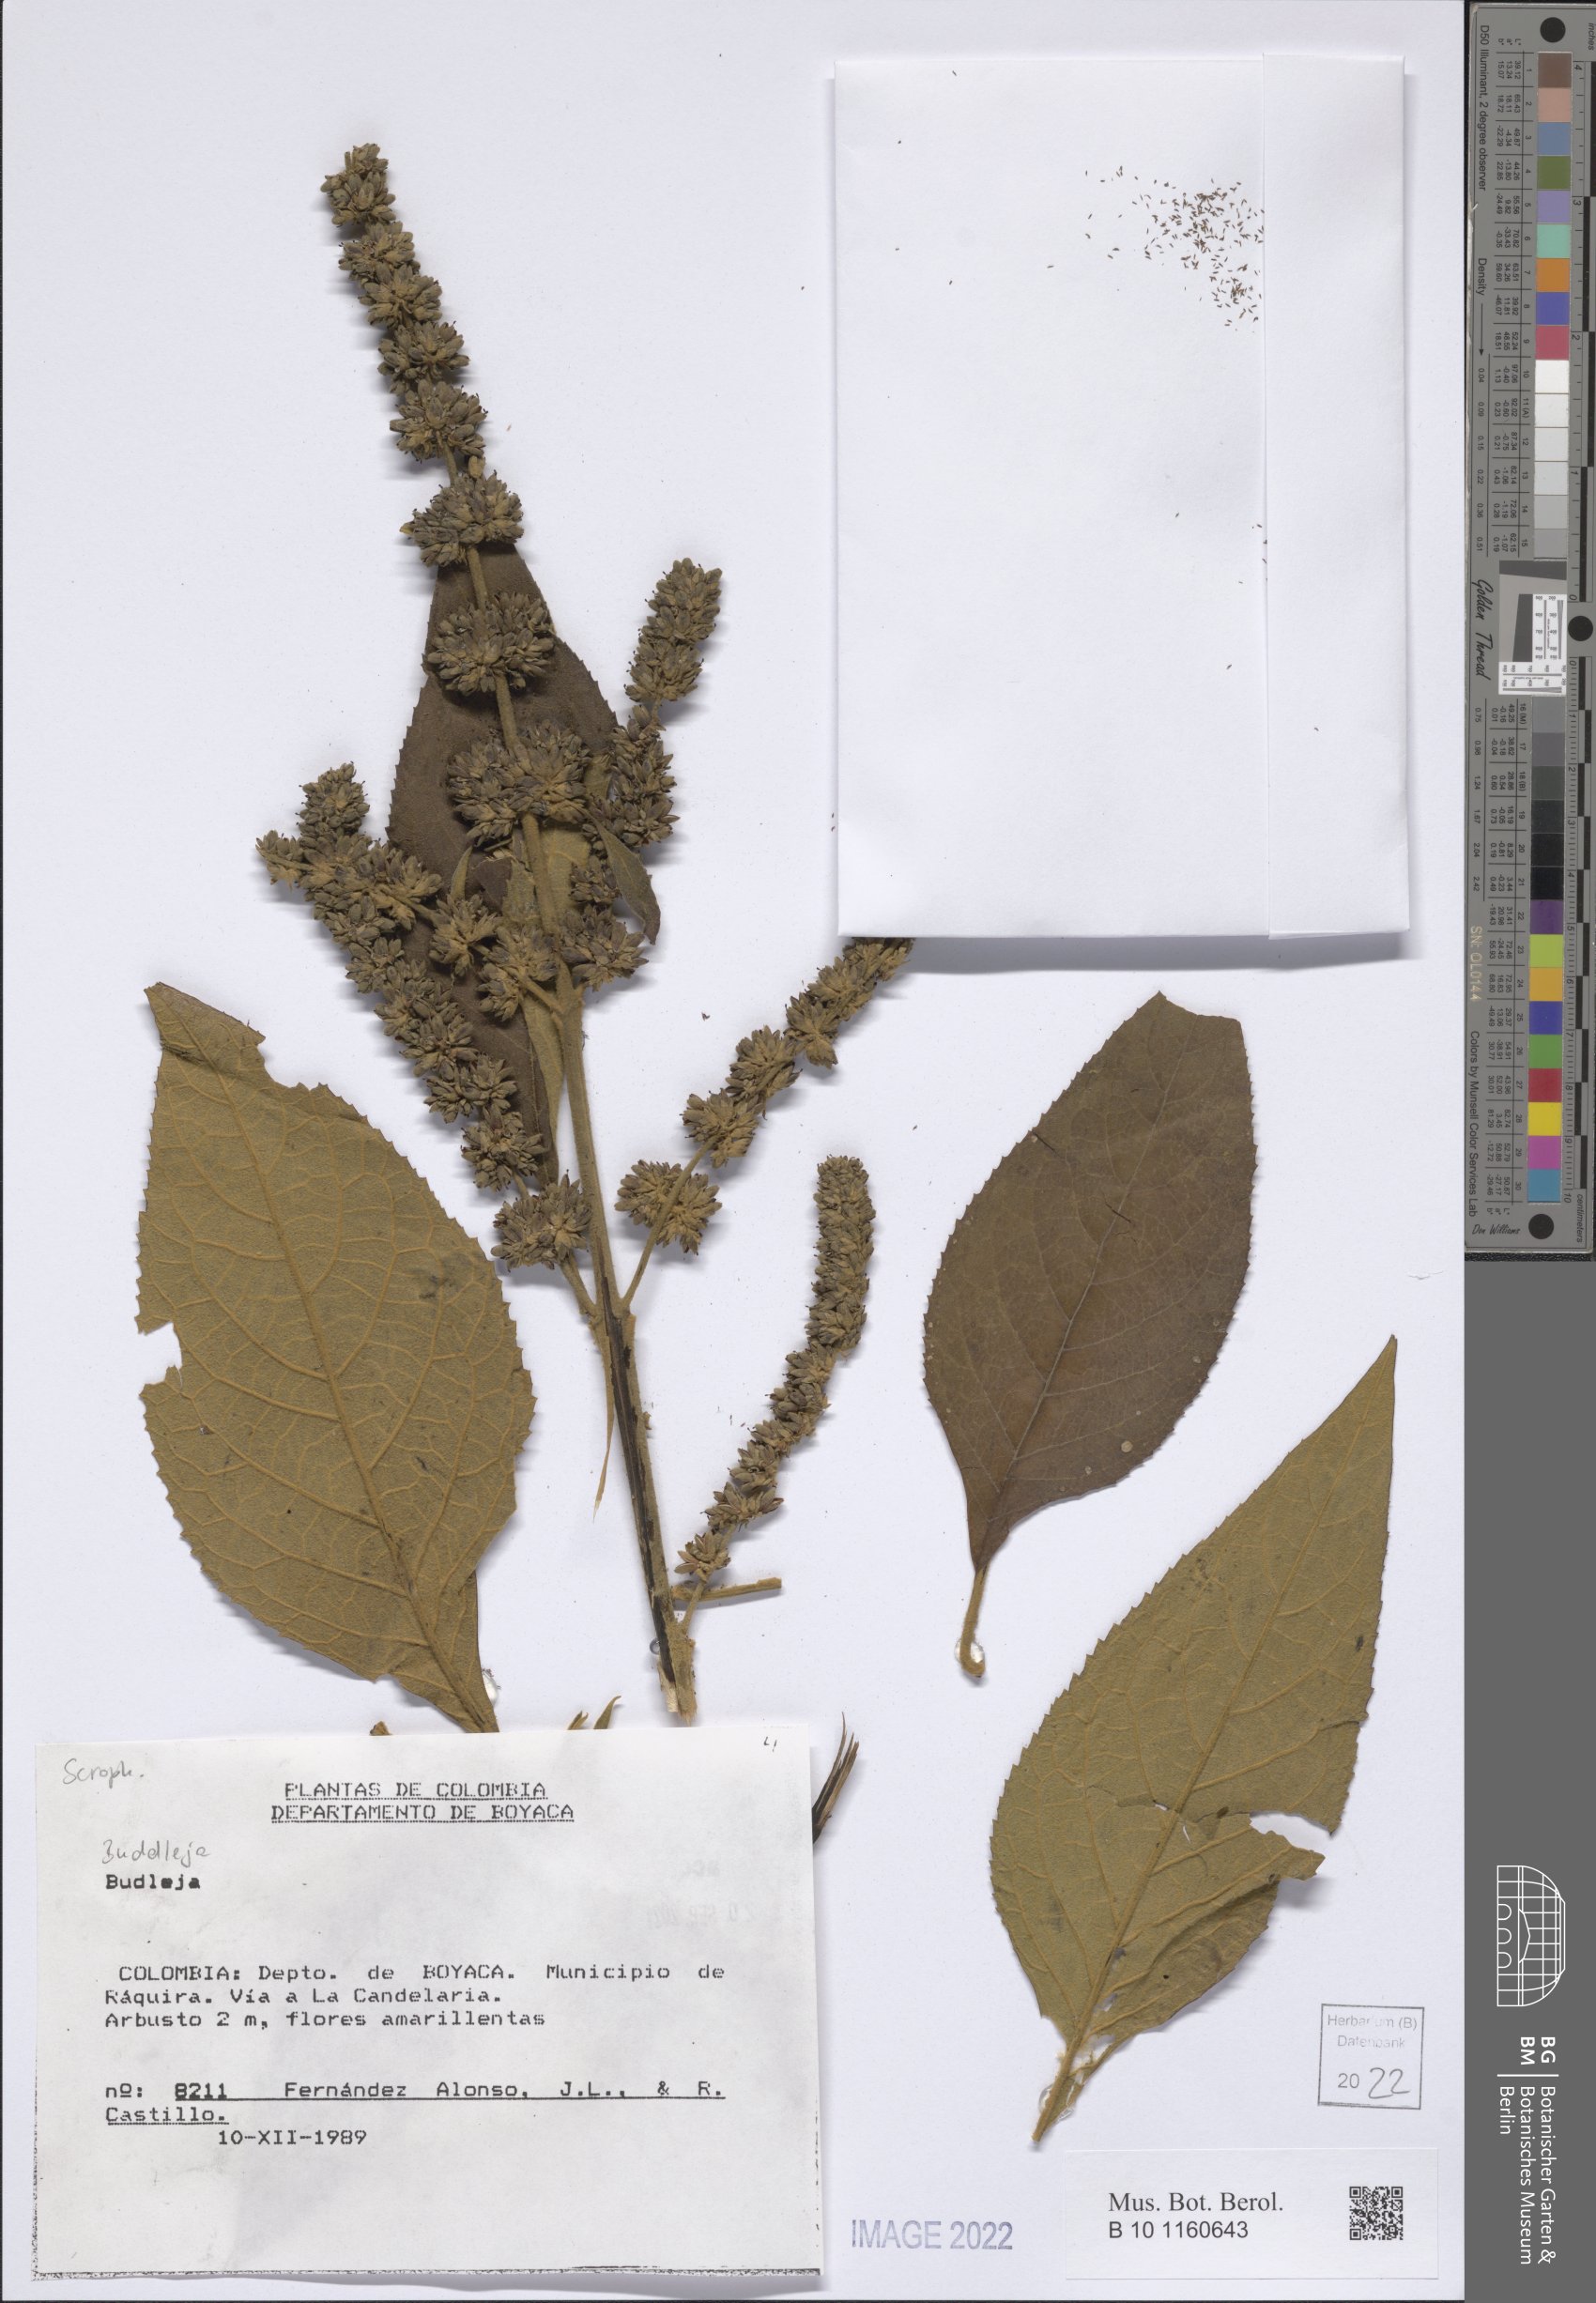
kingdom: Plantae
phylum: Tracheophyta
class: Magnoliopsida
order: Lamiales
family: Scrophulariaceae
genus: Buddleja
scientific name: Buddleja
